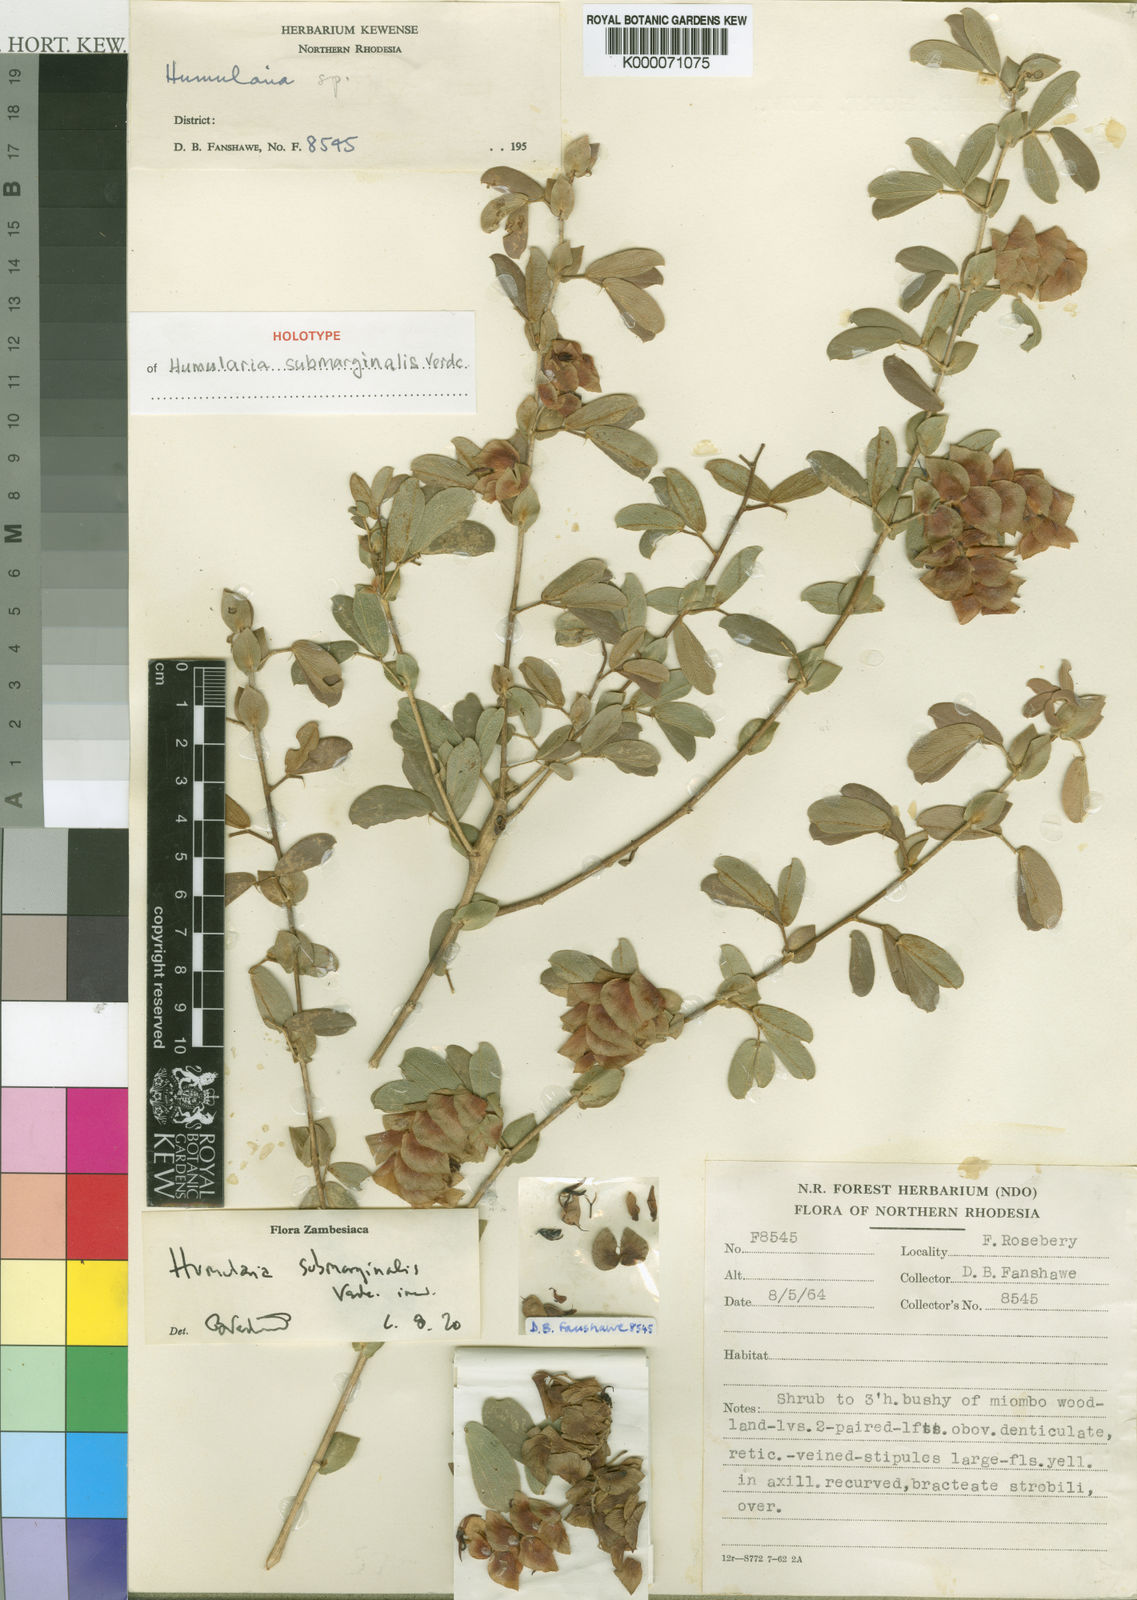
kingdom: Plantae
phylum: Tracheophyta
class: Magnoliopsida
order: Fabales
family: Fabaceae
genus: Humularia
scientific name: Humularia submarginalis
